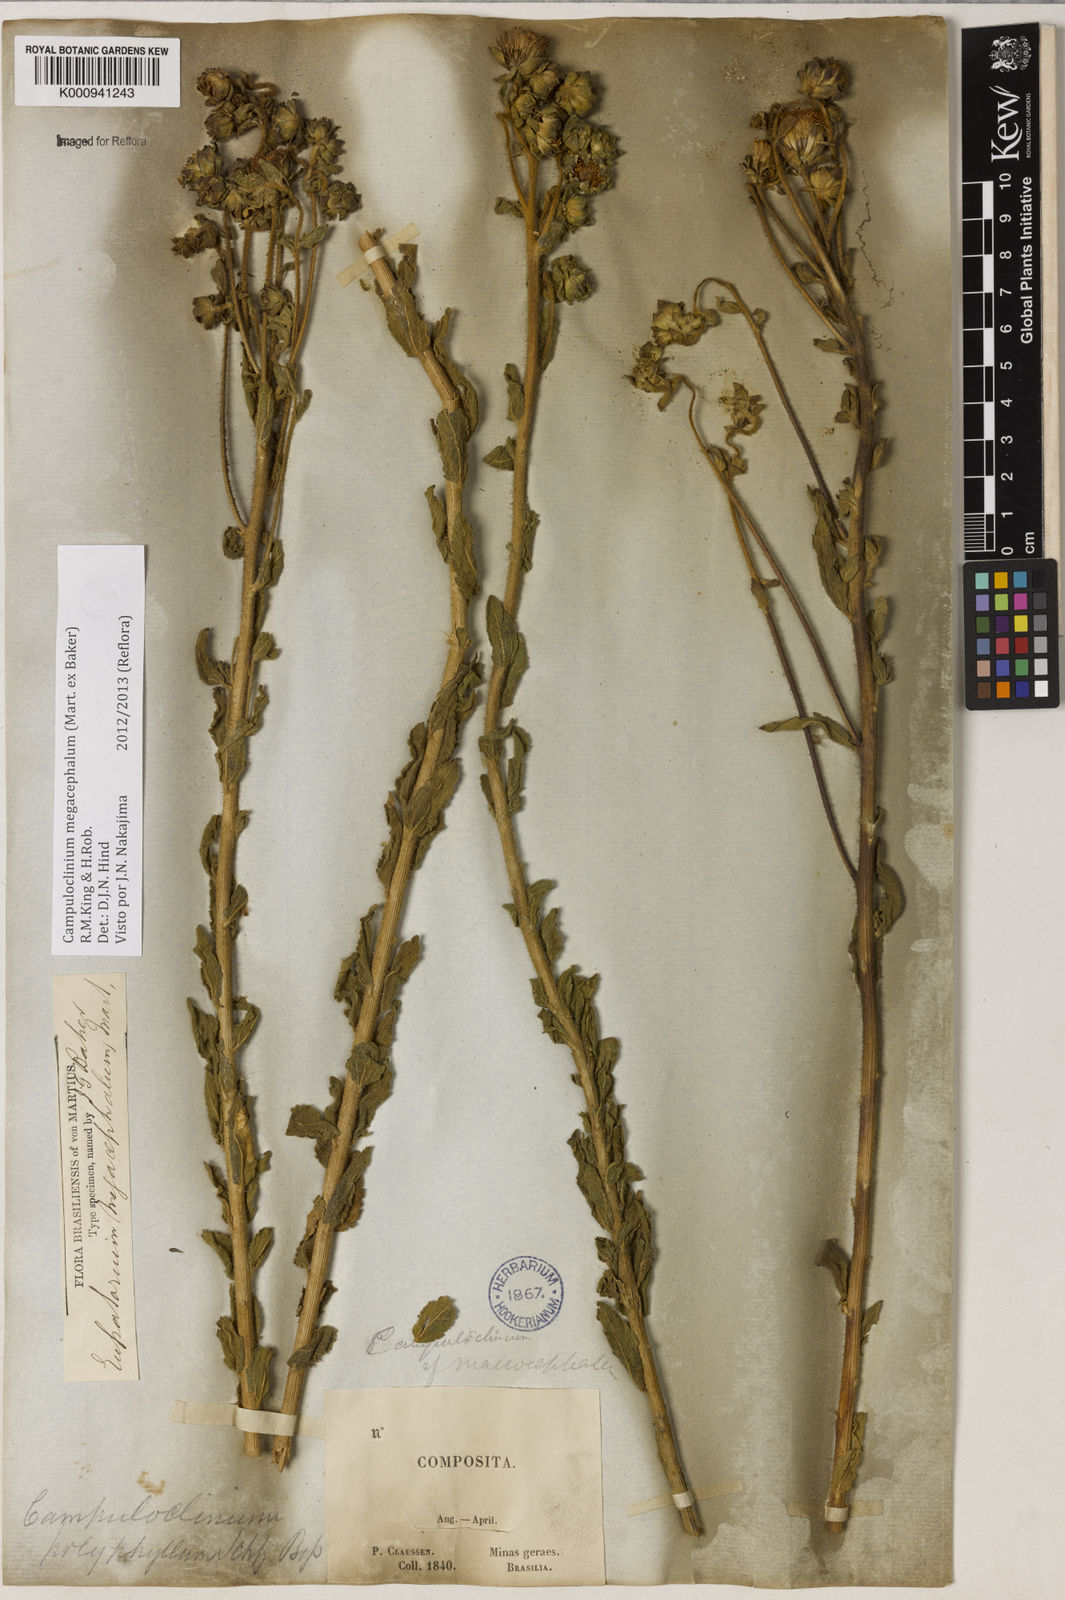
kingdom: Plantae
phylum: Tracheophyta
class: Magnoliopsida
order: Asterales
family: Asteraceae
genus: Campuloclinium
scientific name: Campuloclinium megacephalum
